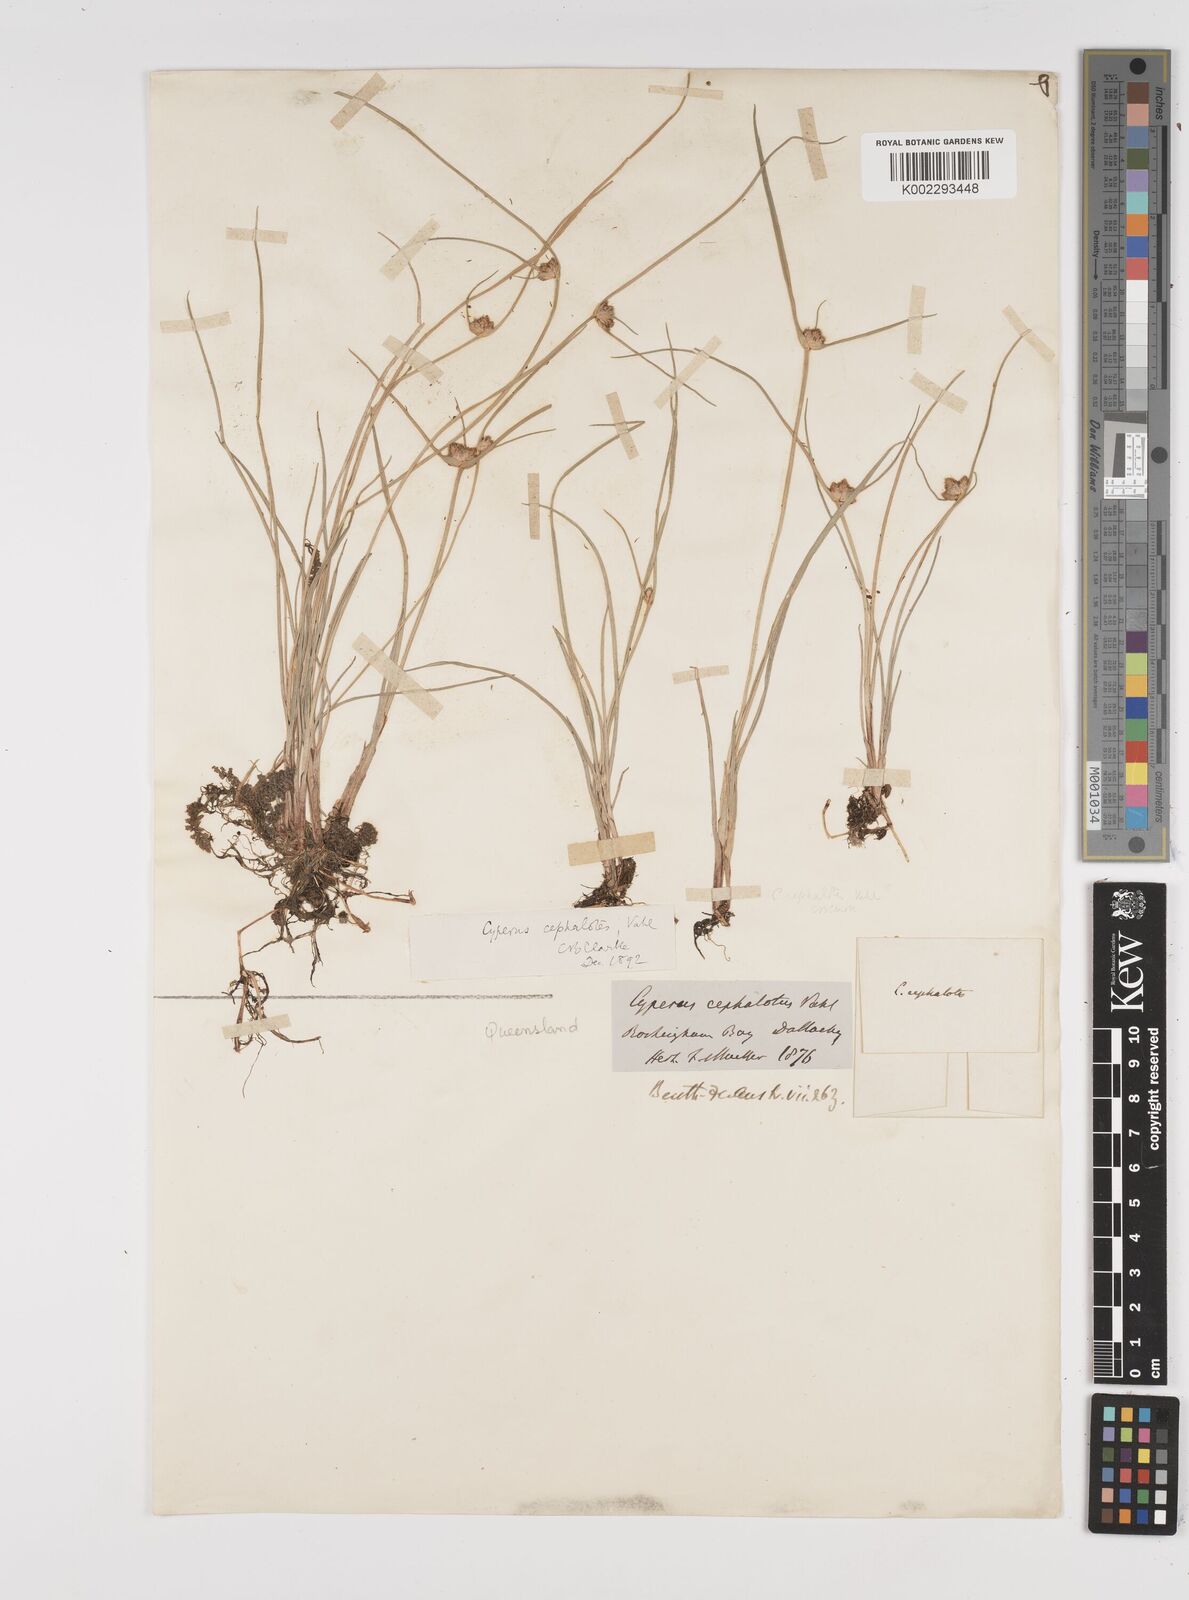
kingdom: Plantae
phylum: Tracheophyta
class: Liliopsida
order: Poales
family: Cyperaceae
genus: Cyperus
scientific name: Cyperus cephalotes
